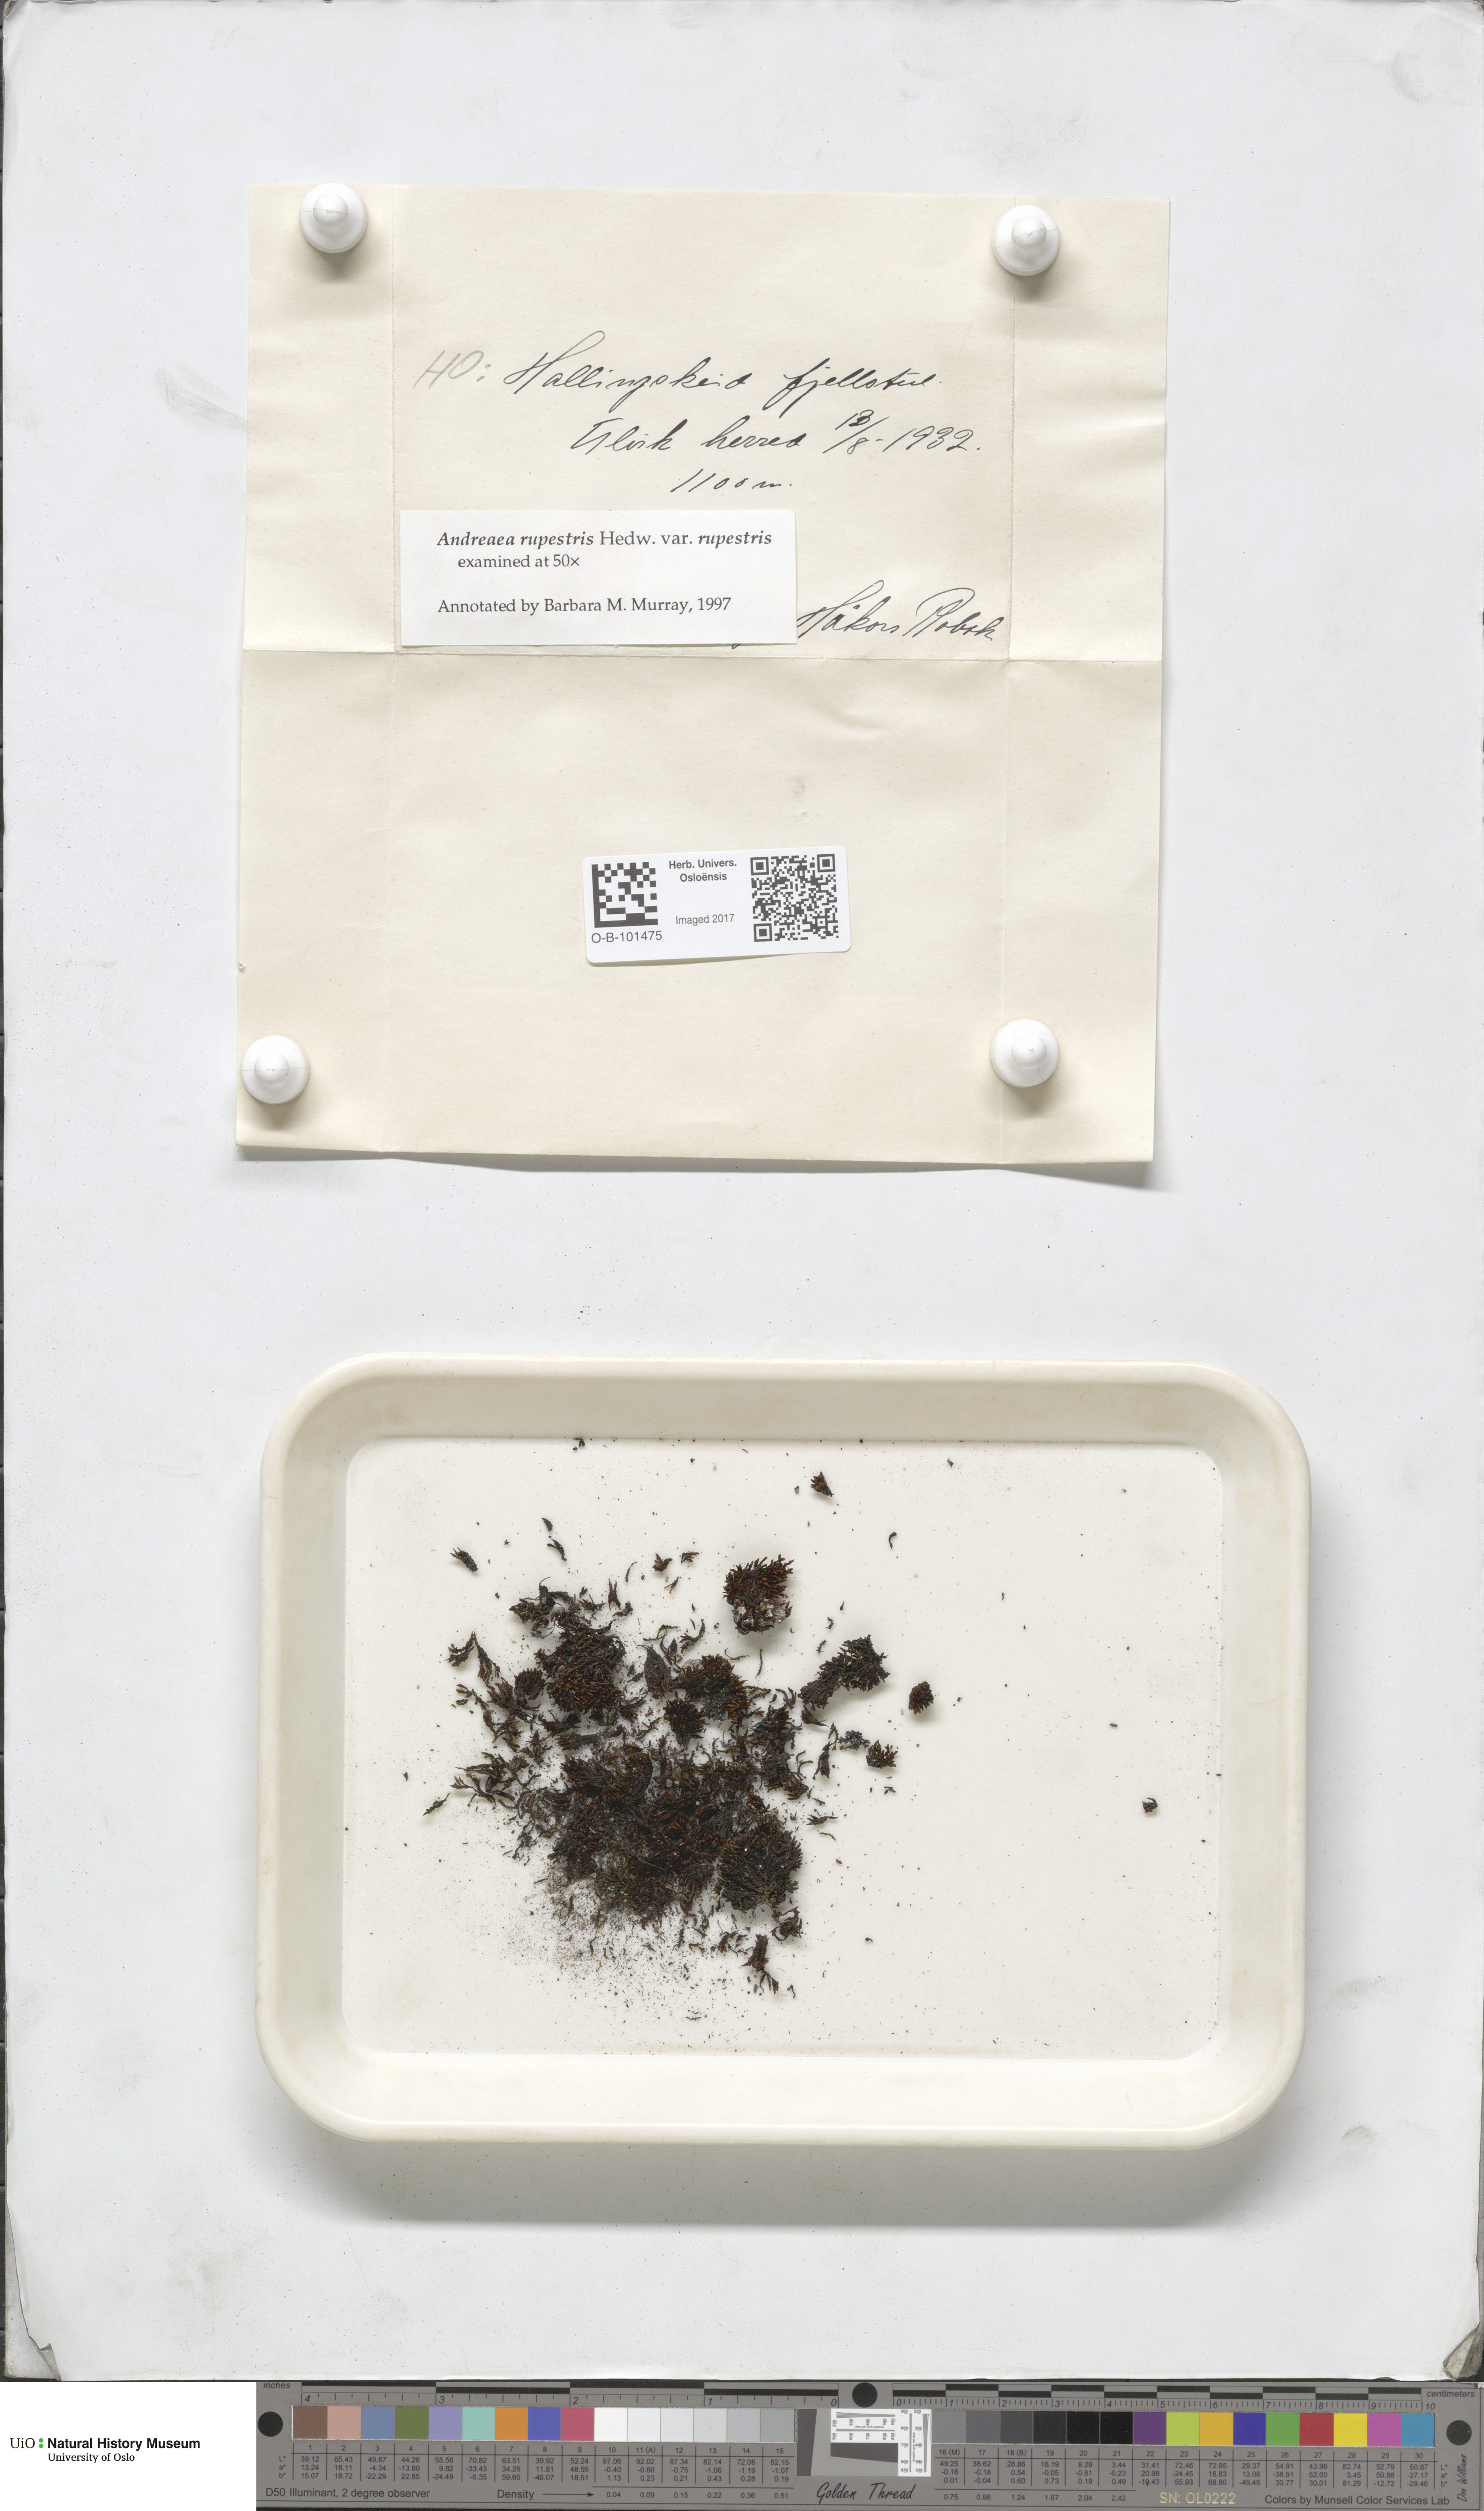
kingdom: Plantae
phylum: Bryophyta
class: Andreaeopsida
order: Andreaeales
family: Andreaeaceae
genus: Andreaea
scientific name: Andreaea rupestris
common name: Black rock moss
